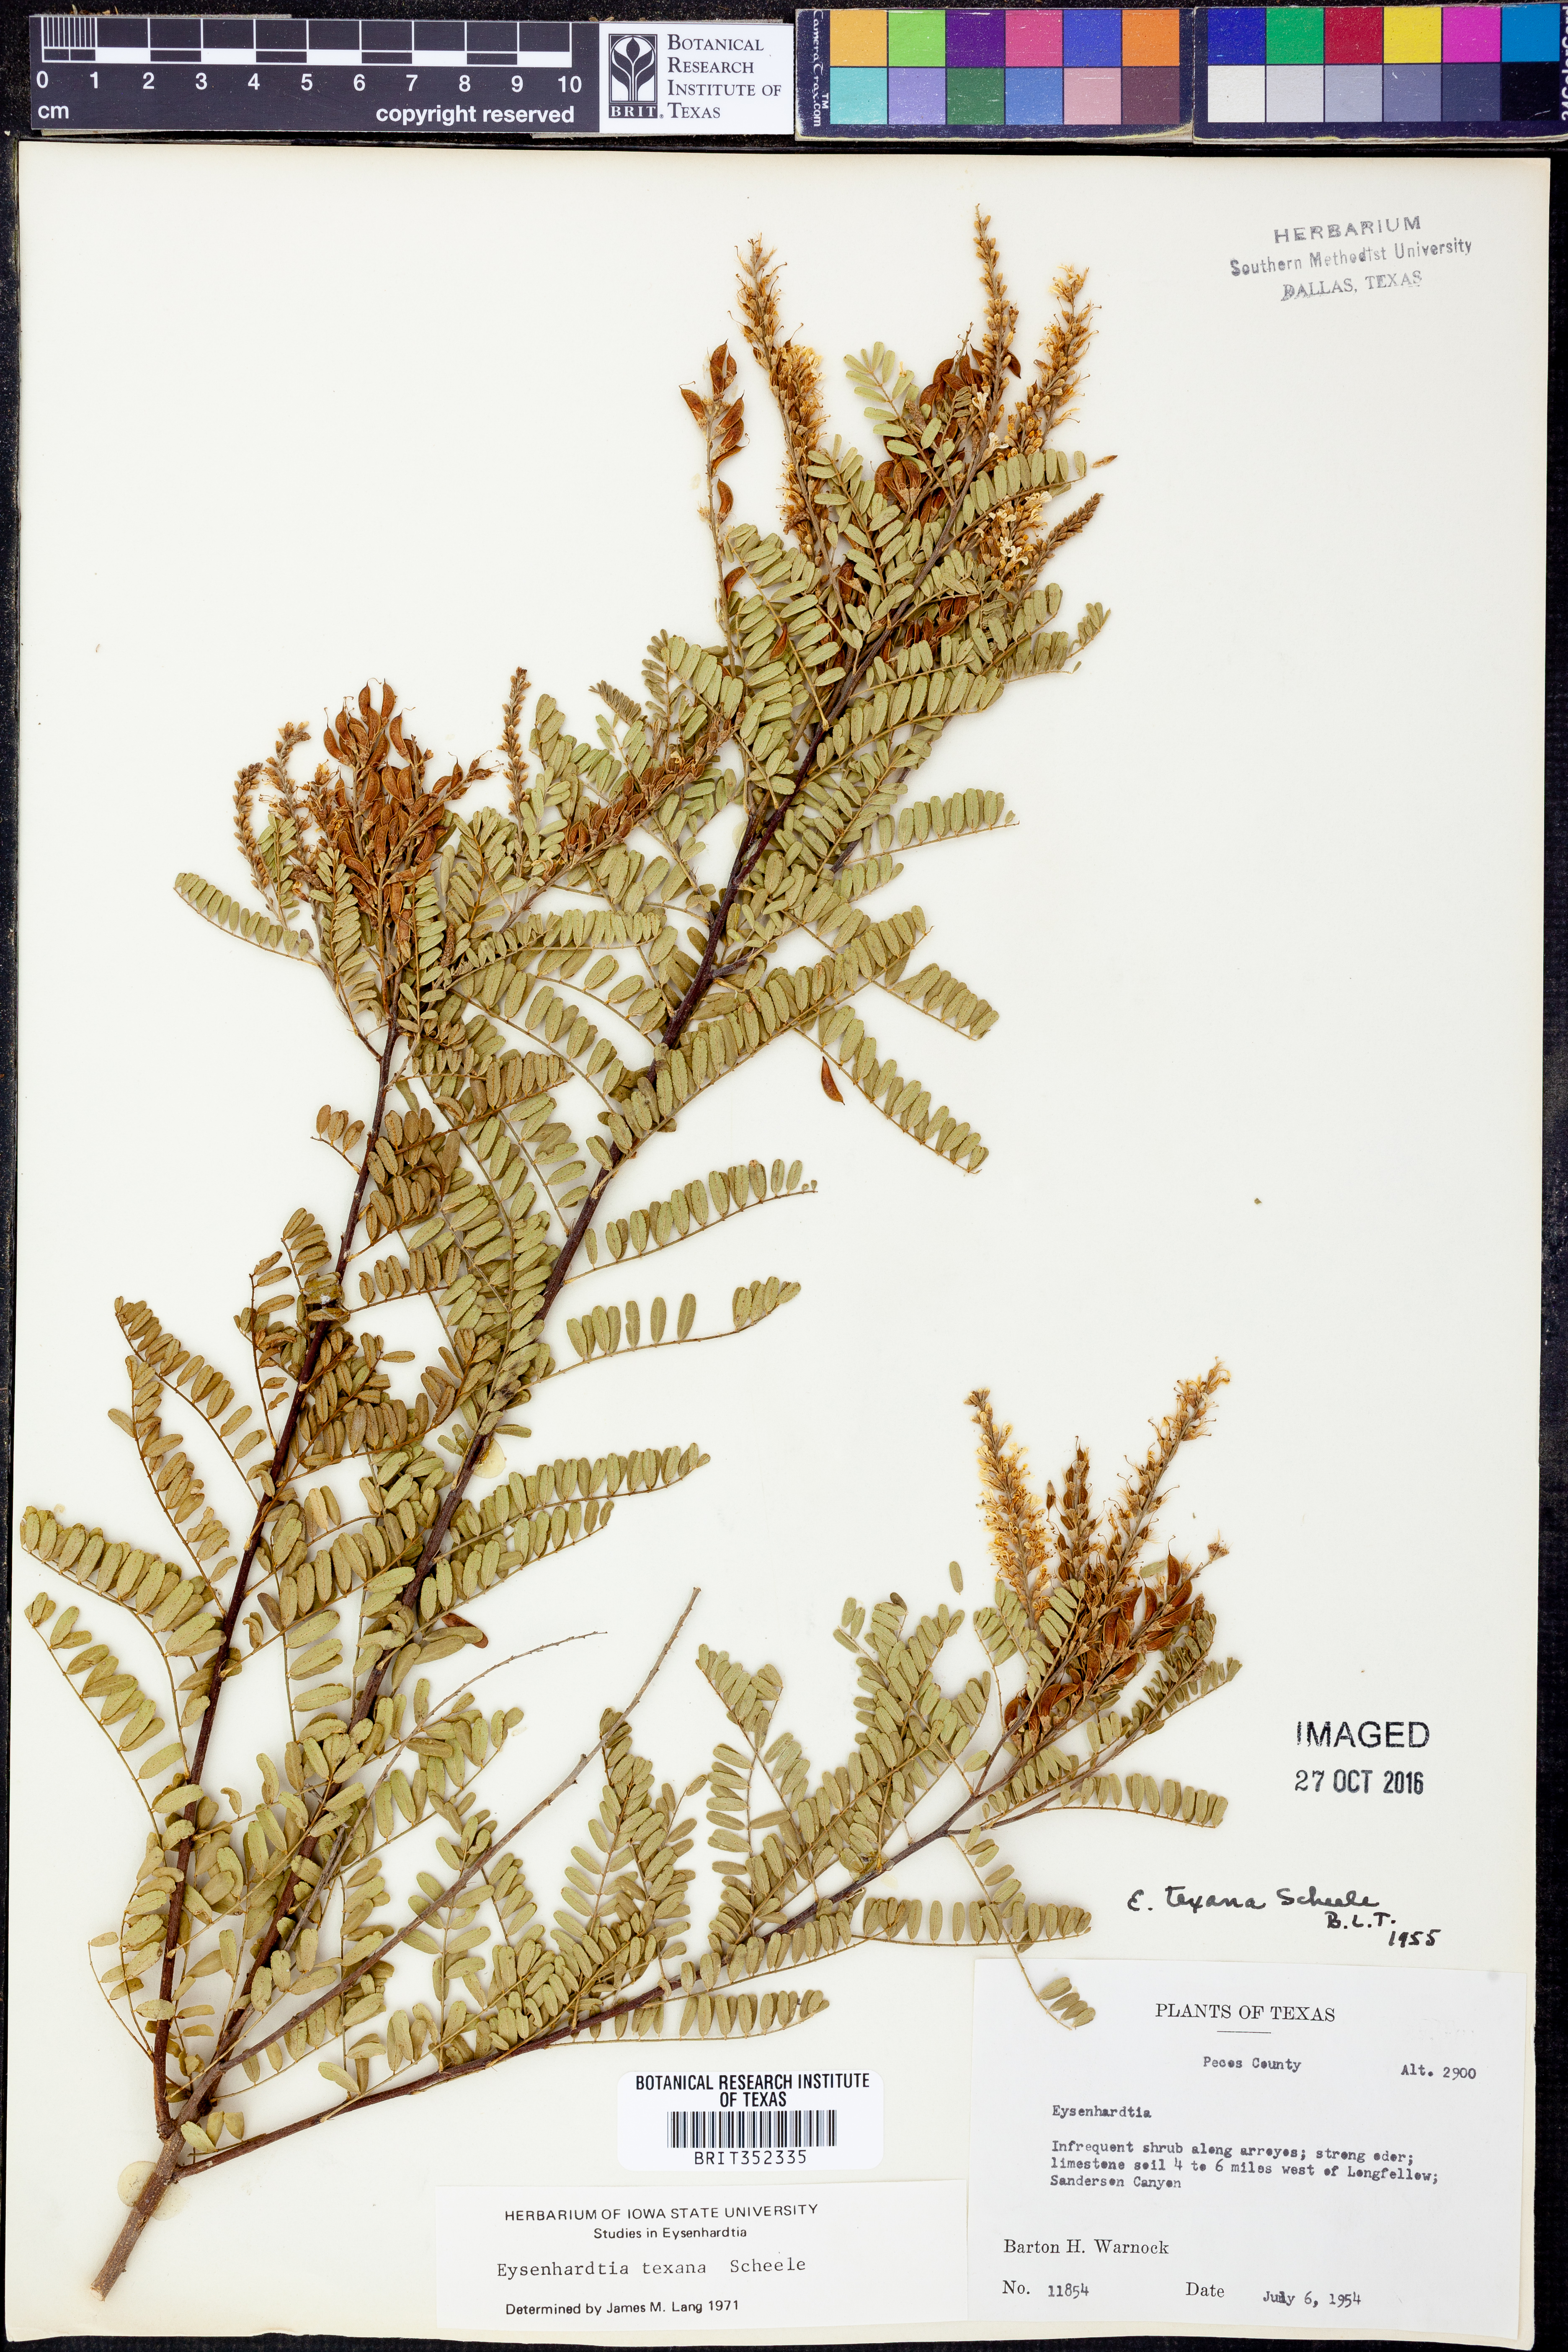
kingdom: Plantae
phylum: Tracheophyta
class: Magnoliopsida
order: Fabales
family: Fabaceae
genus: Eysenhardtia
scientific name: Eysenhardtia texana
